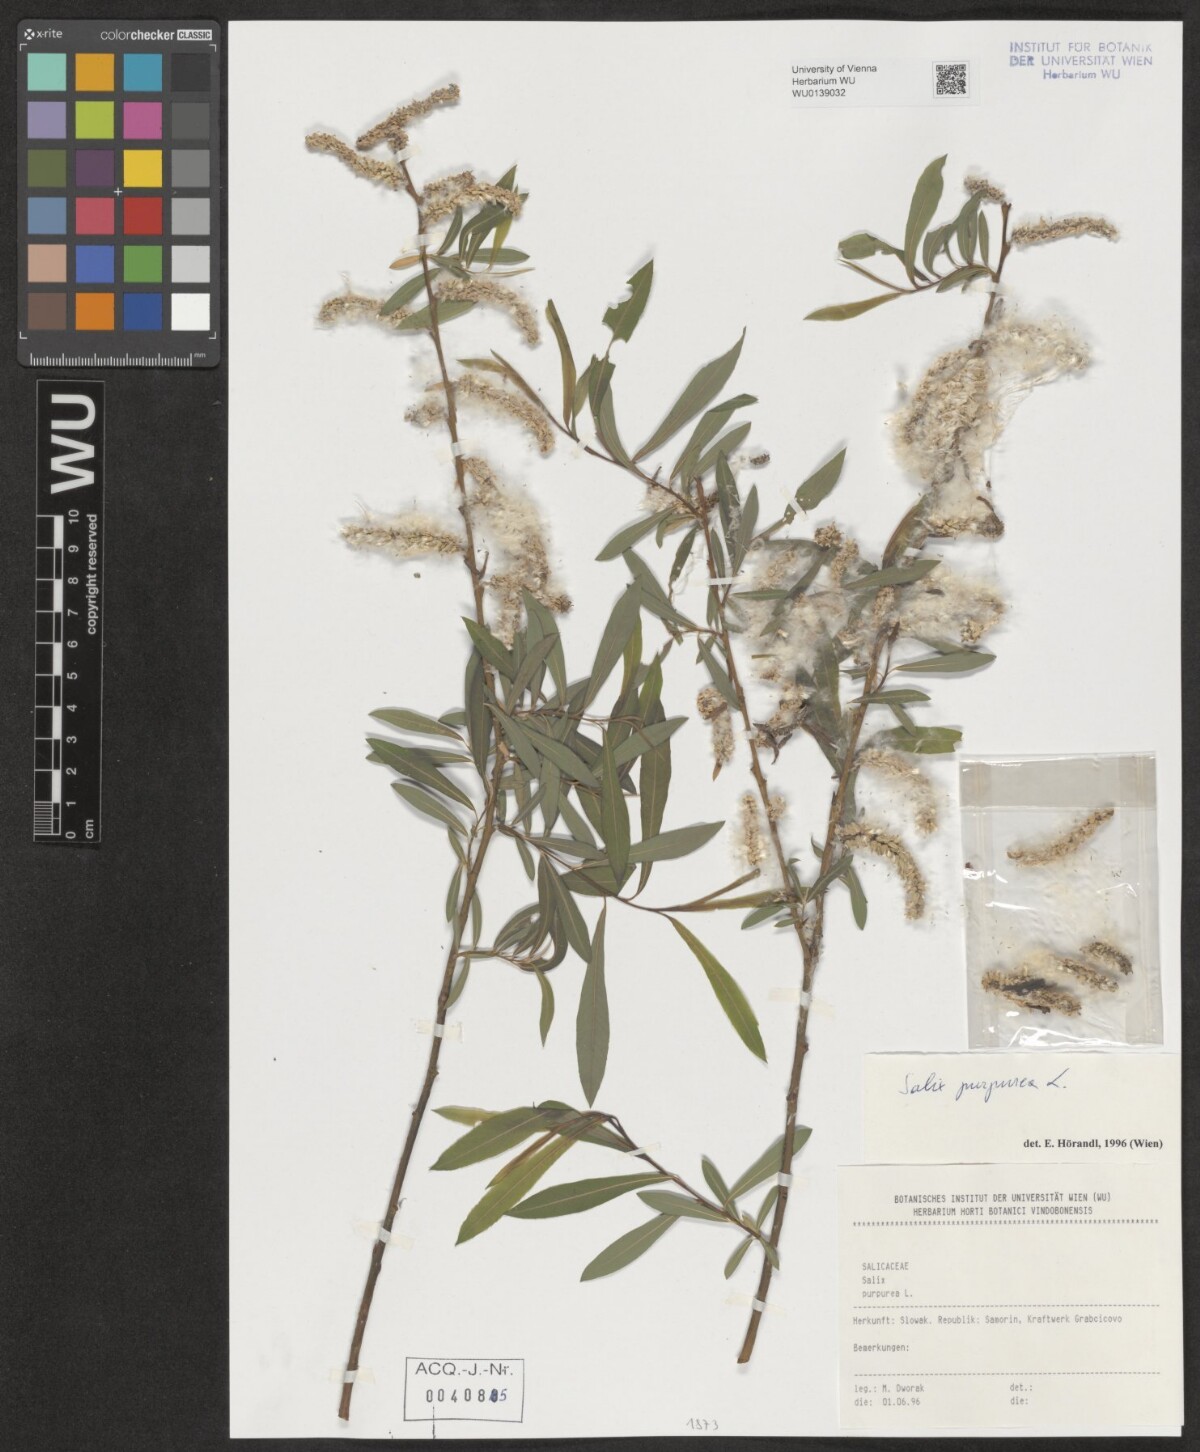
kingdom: Plantae
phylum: Tracheophyta
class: Magnoliopsida
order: Malpighiales
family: Salicaceae
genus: Salix
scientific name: Salix purpurea
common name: Purple willow
